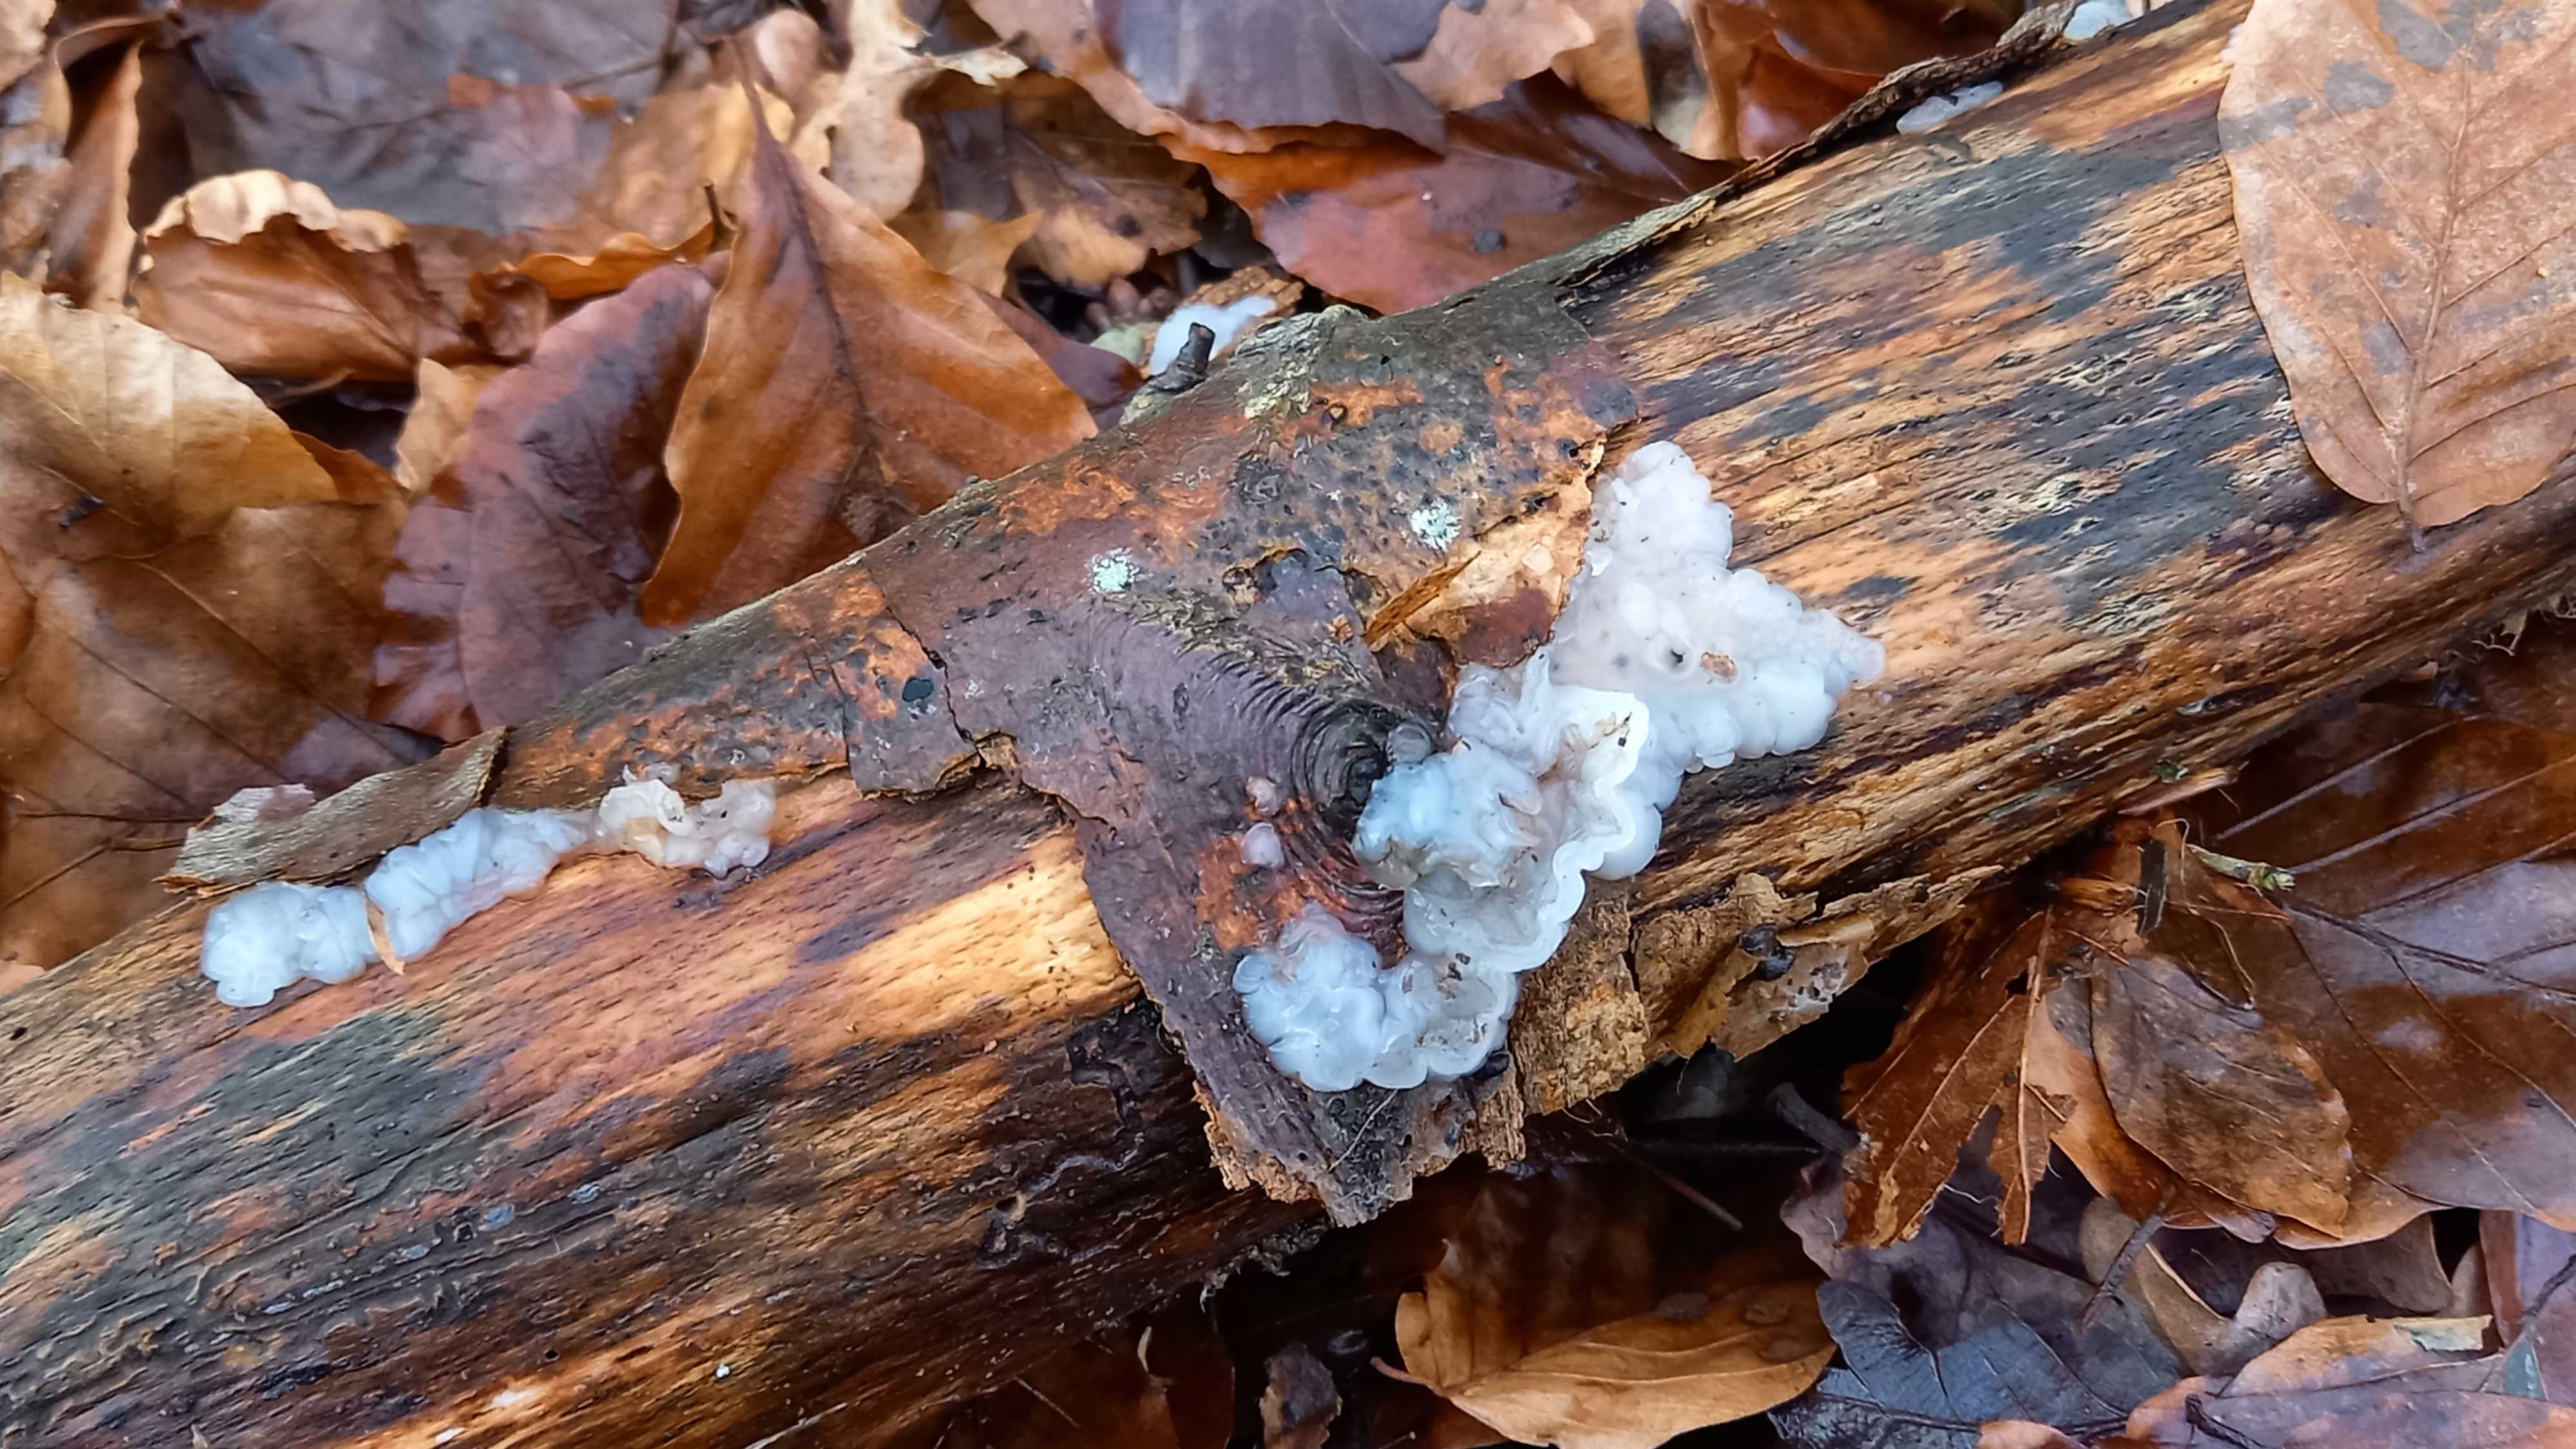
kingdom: Fungi
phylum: Basidiomycota
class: Agaricomycetes
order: Auriculariales
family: Auriculariaceae
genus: Exidia
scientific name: Exidia thuretiana
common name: hvidlig bævretop
